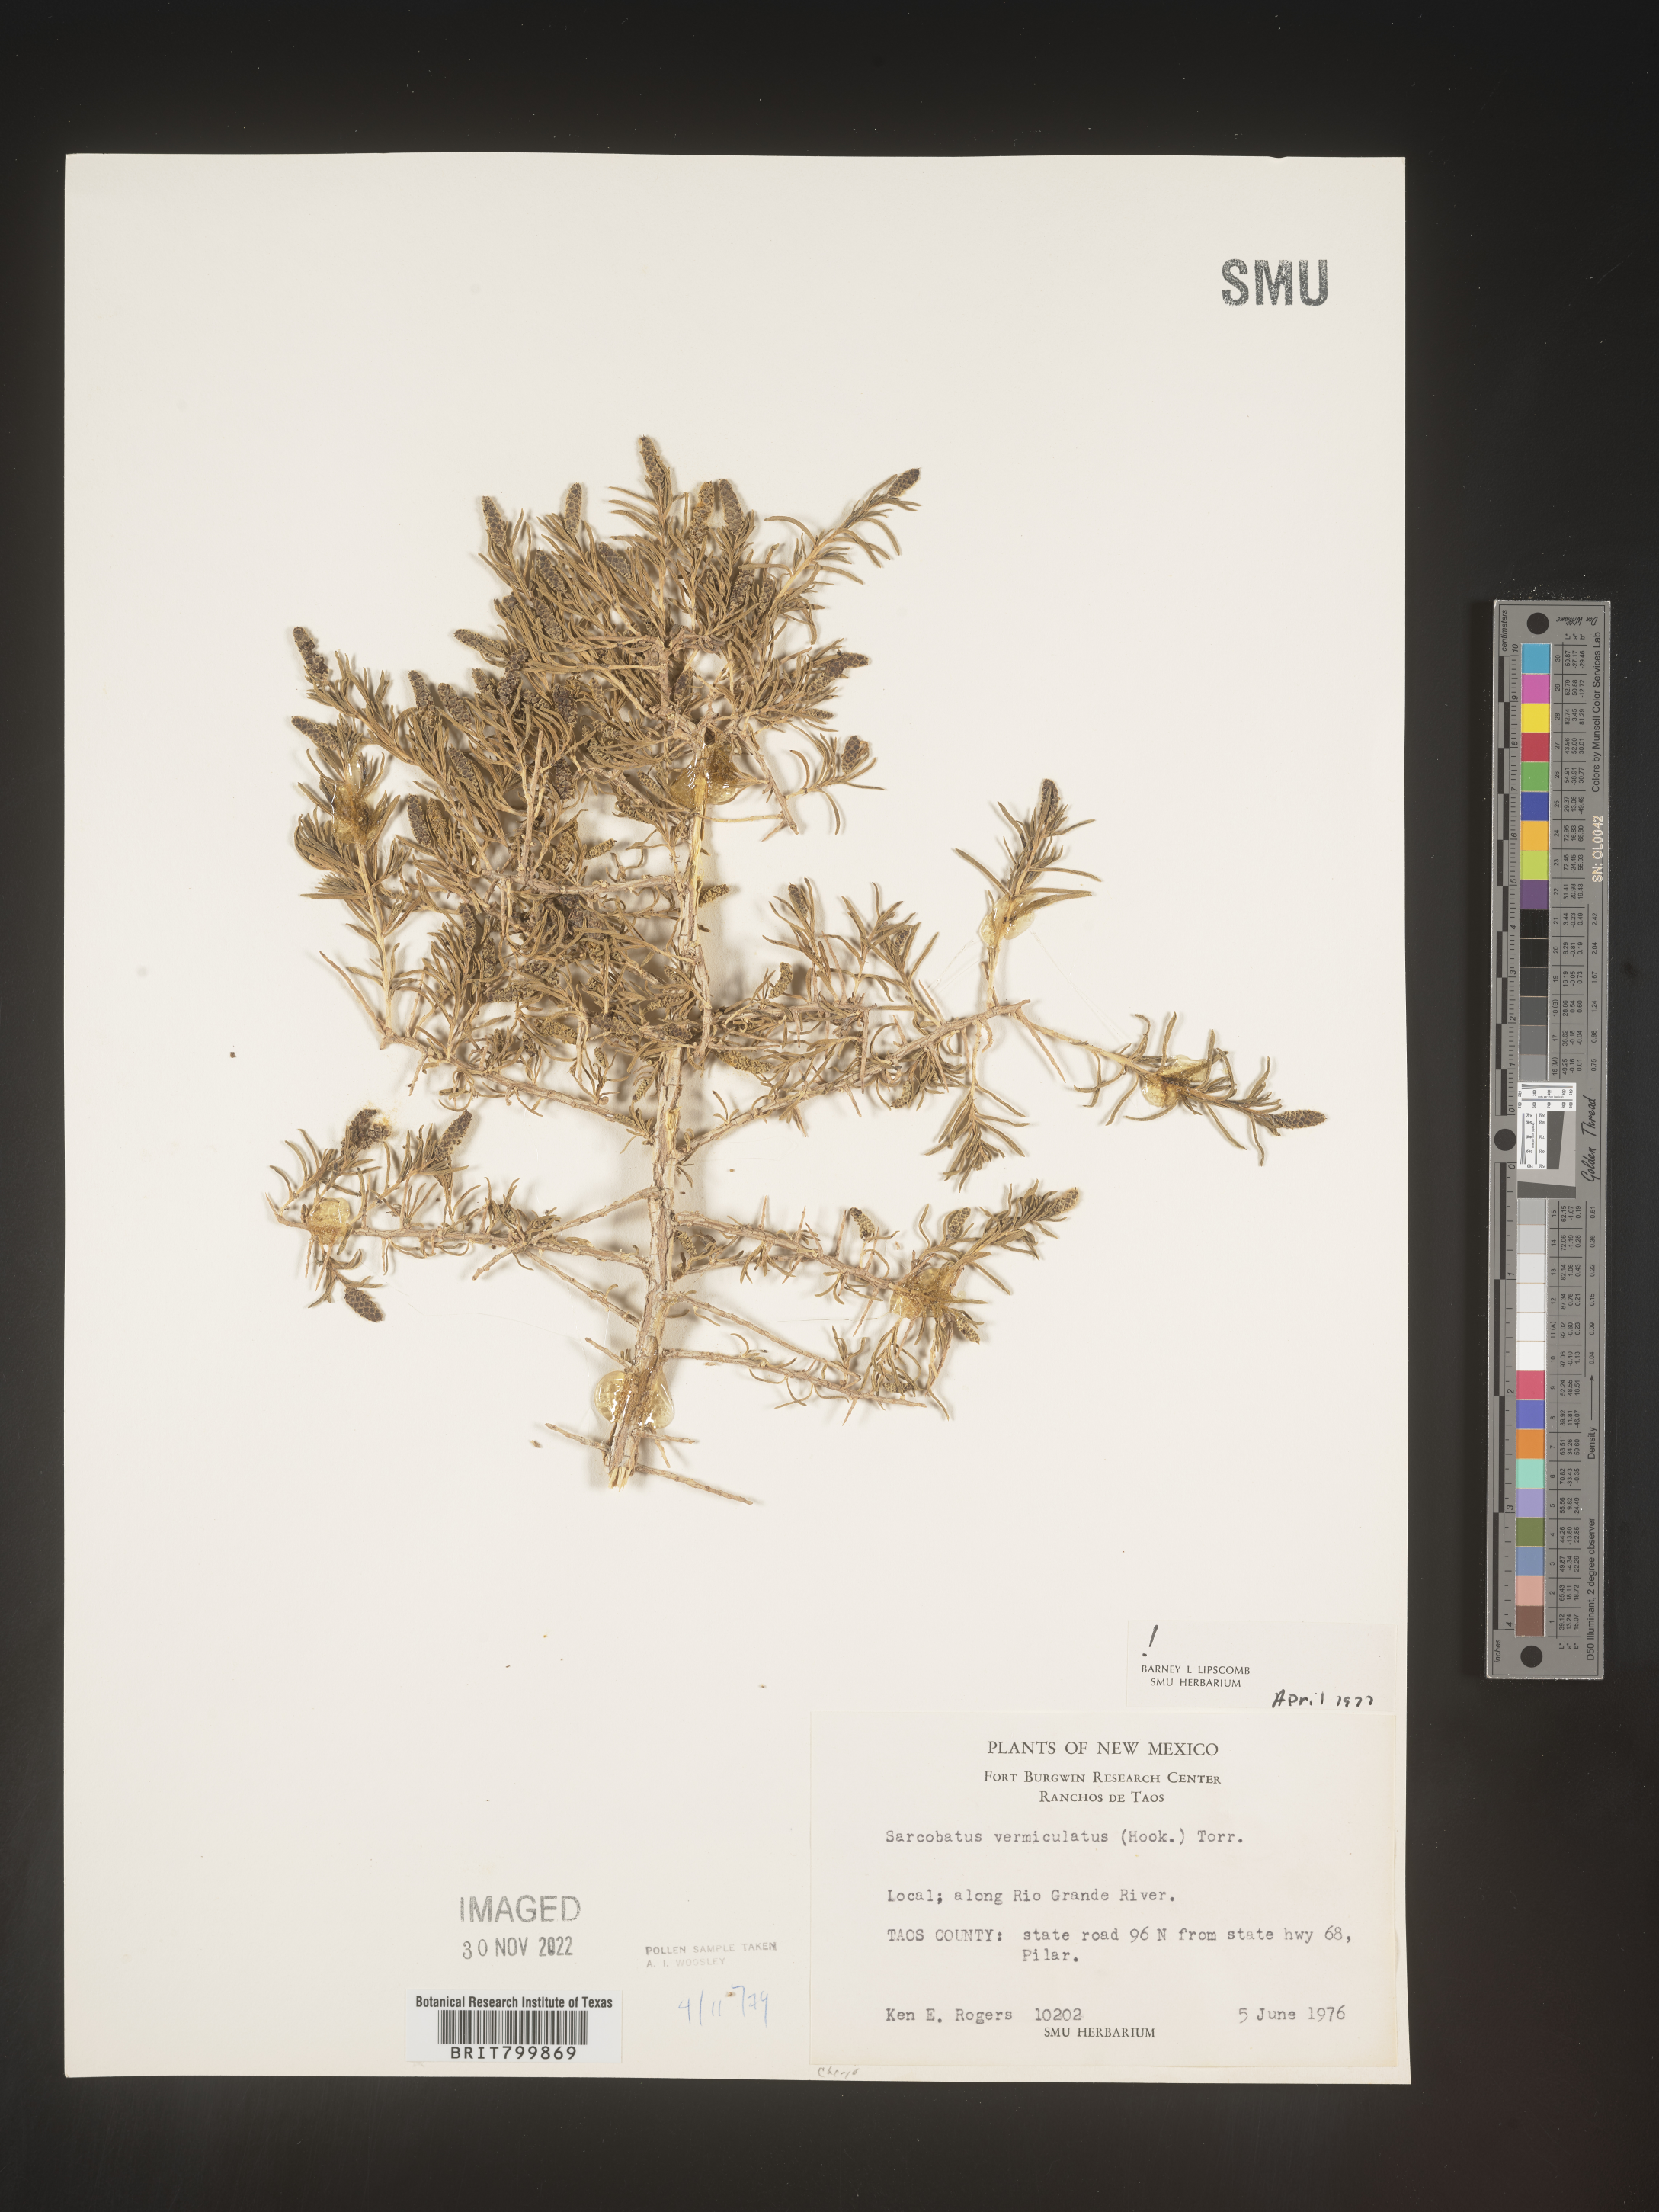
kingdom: Plantae
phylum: Tracheophyta
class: Magnoliopsida
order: Caryophyllales
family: Sarcobataceae
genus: Sarcobatus
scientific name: Sarcobatus vermiculatus
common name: Greasewood
